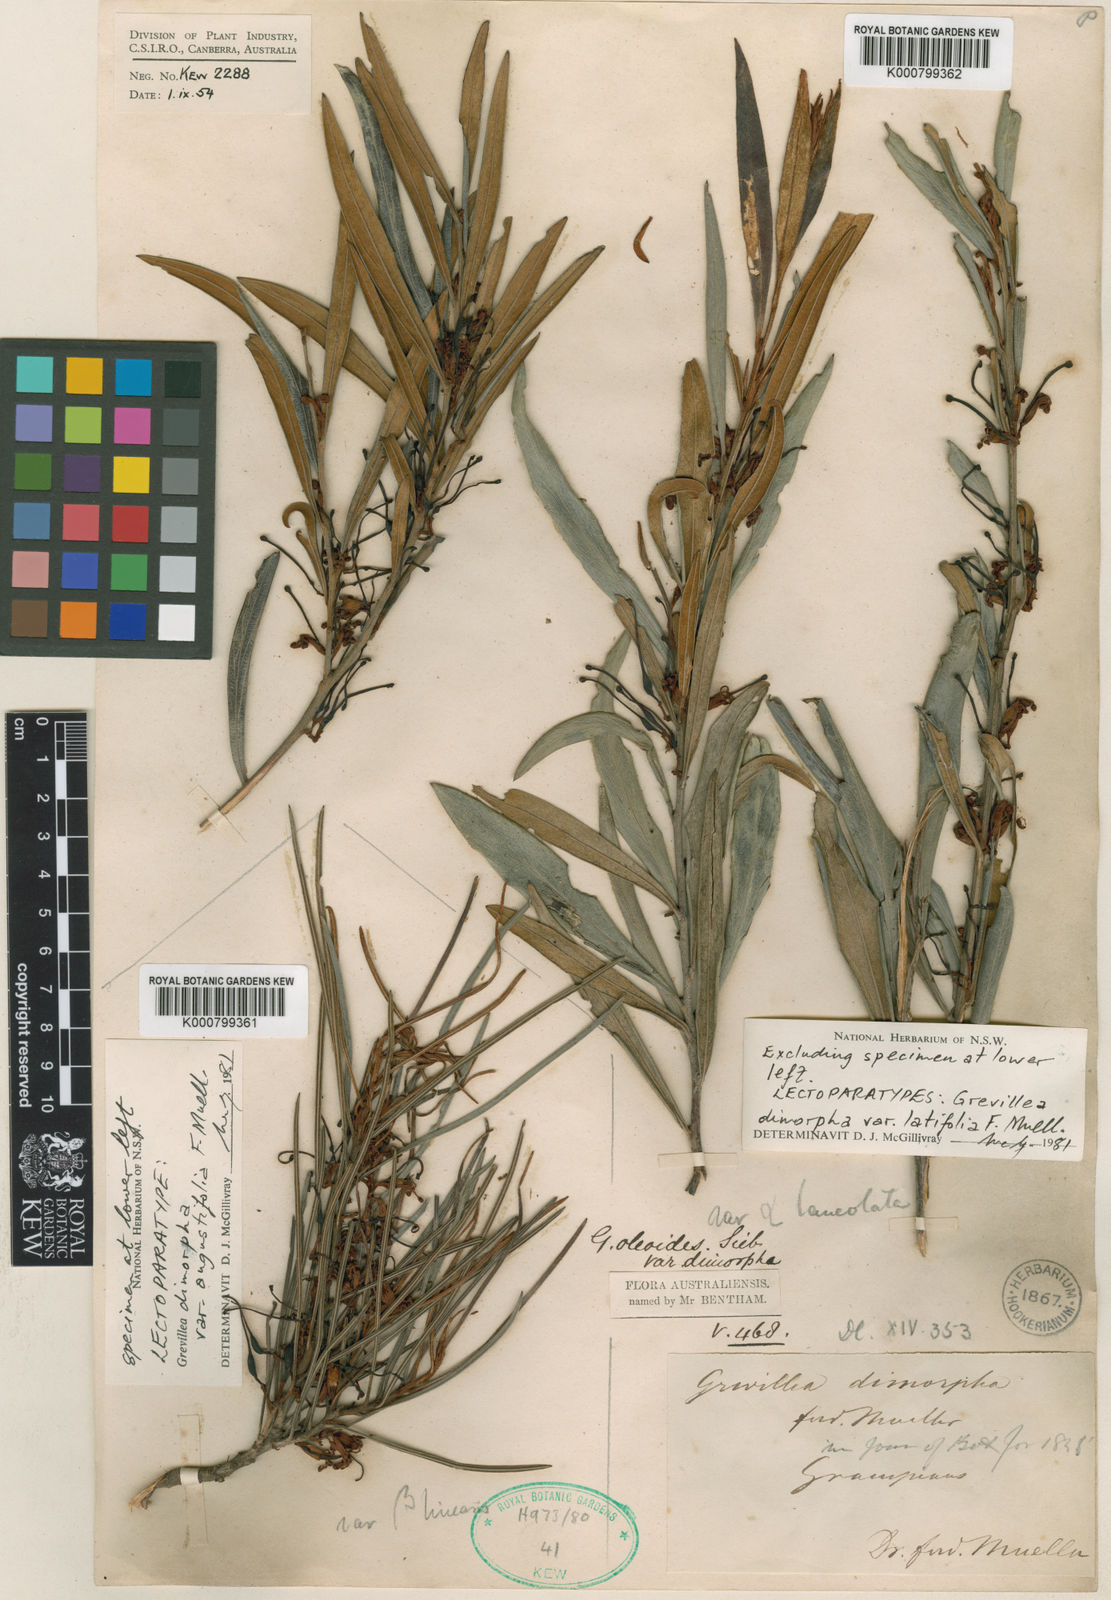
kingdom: Plantae
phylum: Tracheophyta
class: Magnoliopsida
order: Proteales
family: Proteaceae
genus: Grevillea
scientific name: Grevillea dimorpha
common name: Flame grevillea
